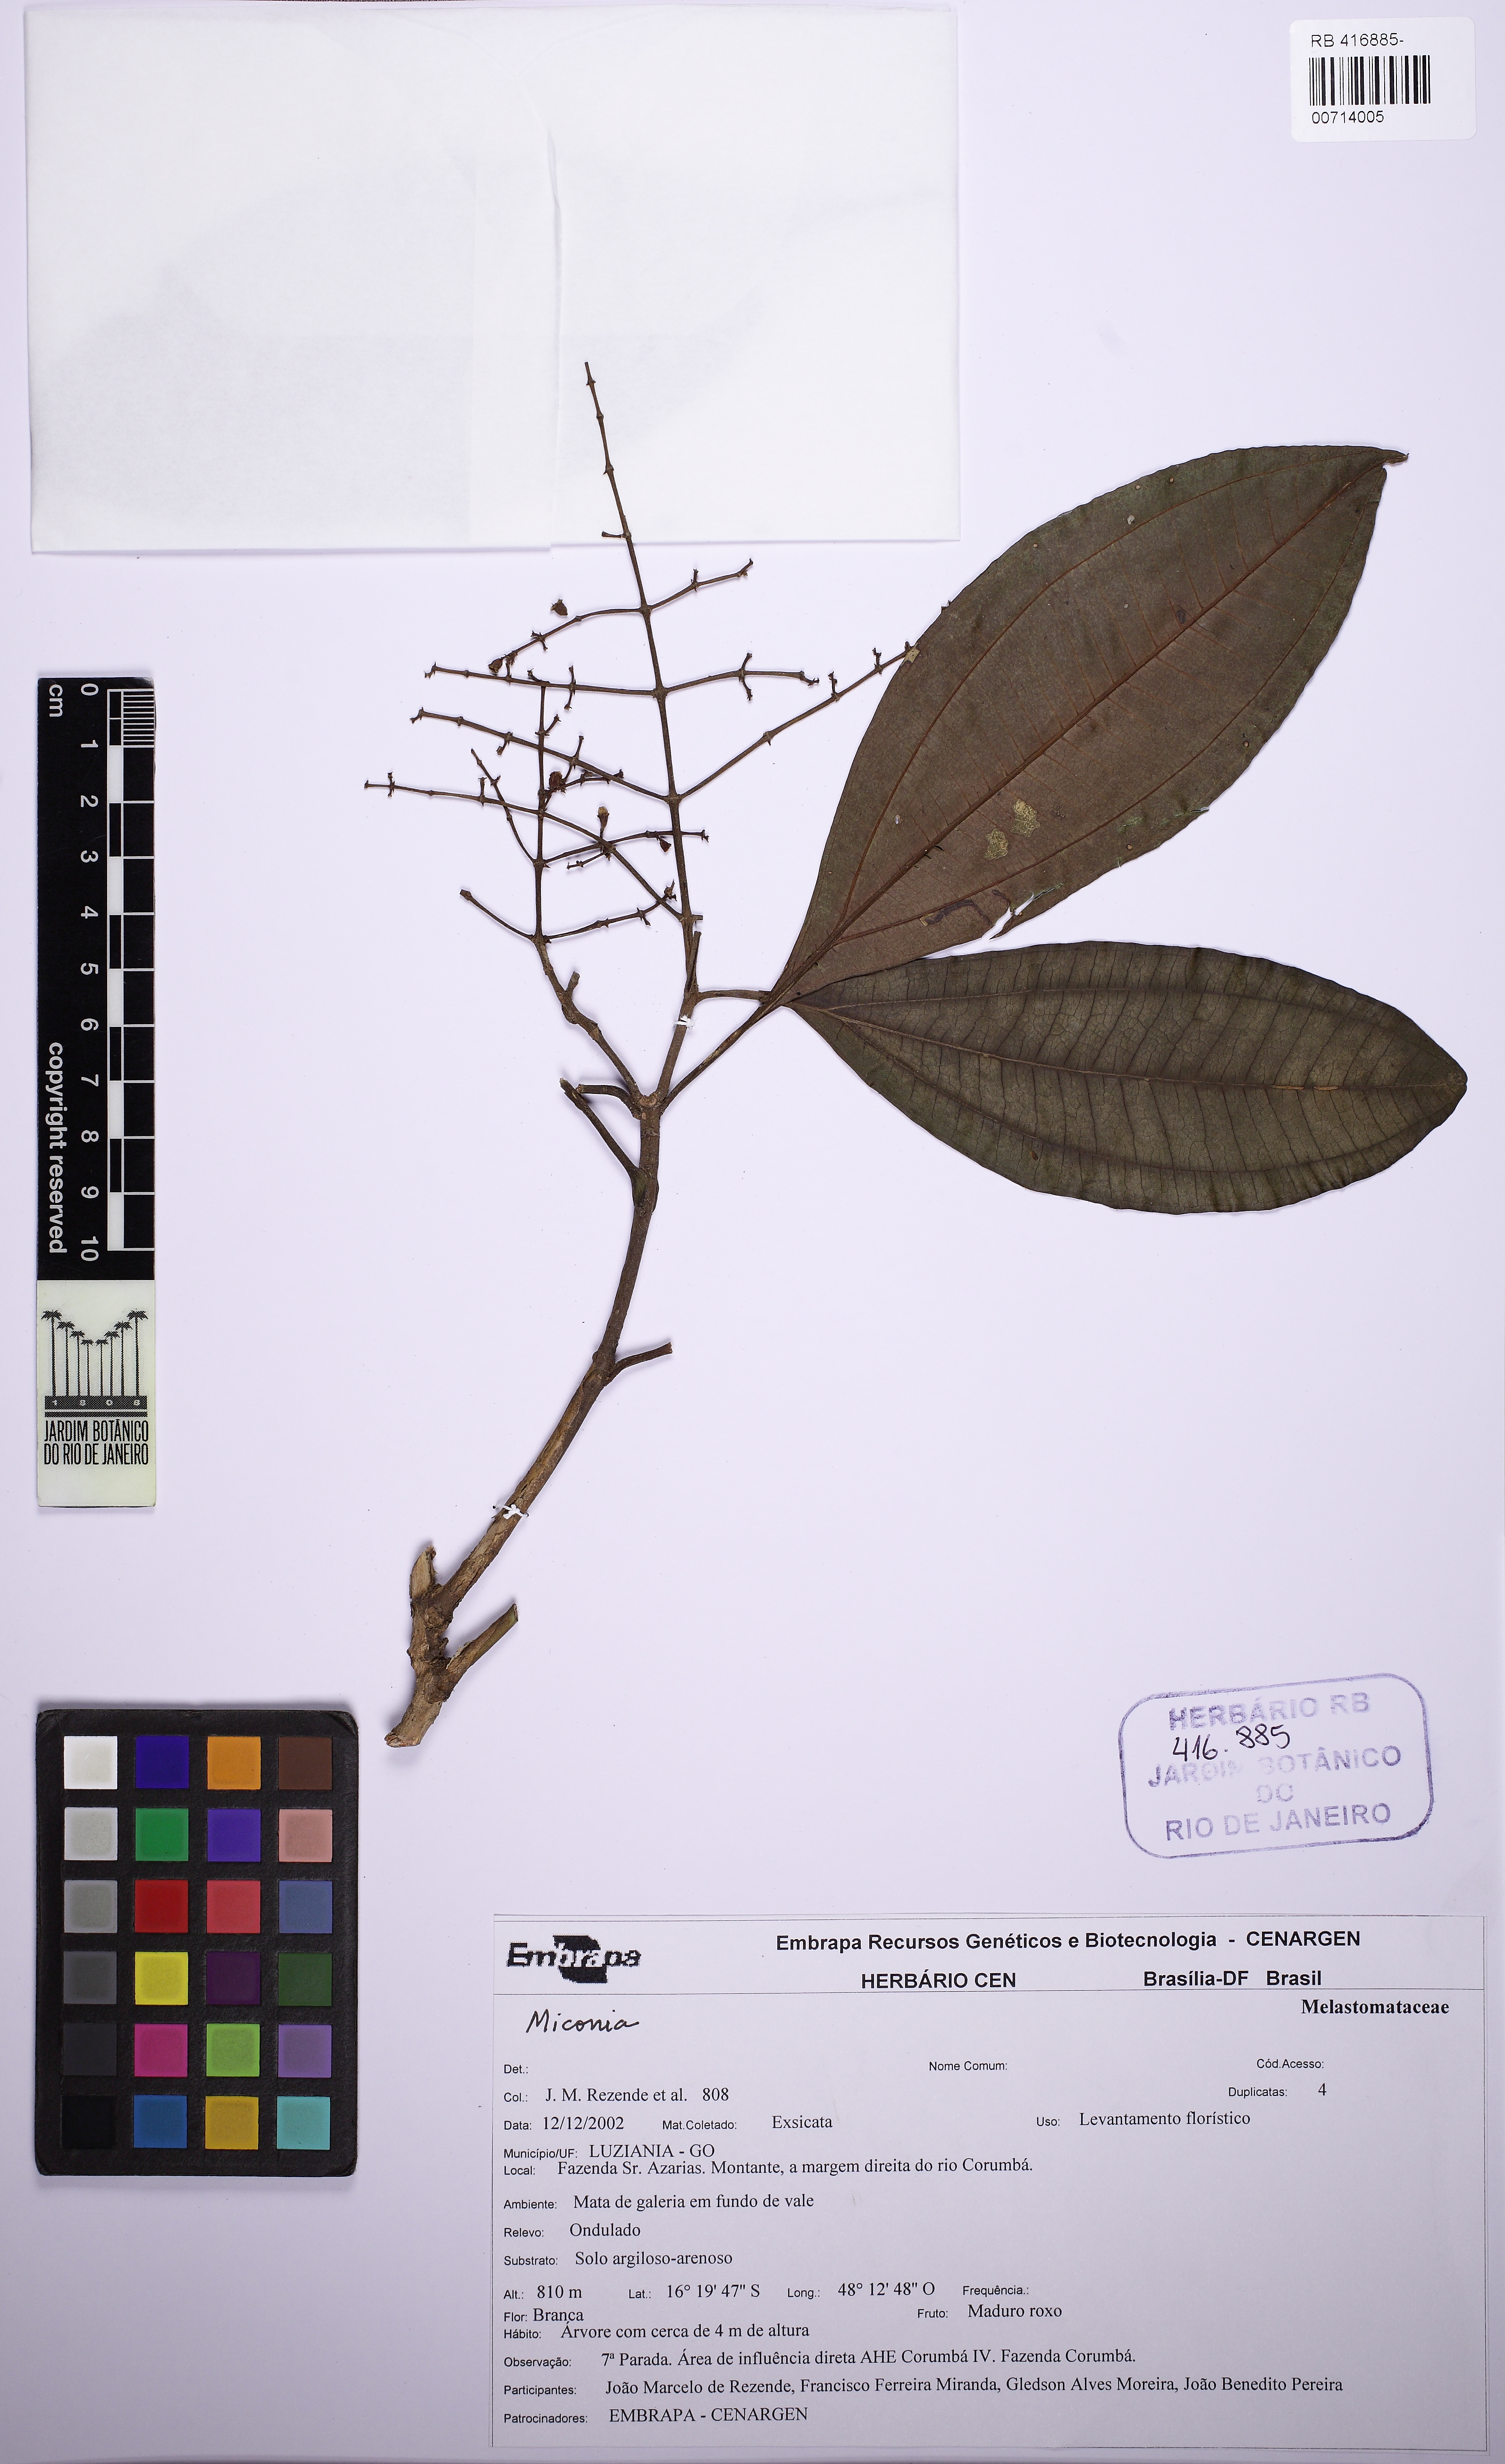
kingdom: Plantae
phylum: Tracheophyta
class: Magnoliopsida
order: Myrtales
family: Melastomataceae
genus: Miconia
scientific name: Miconia prasina
